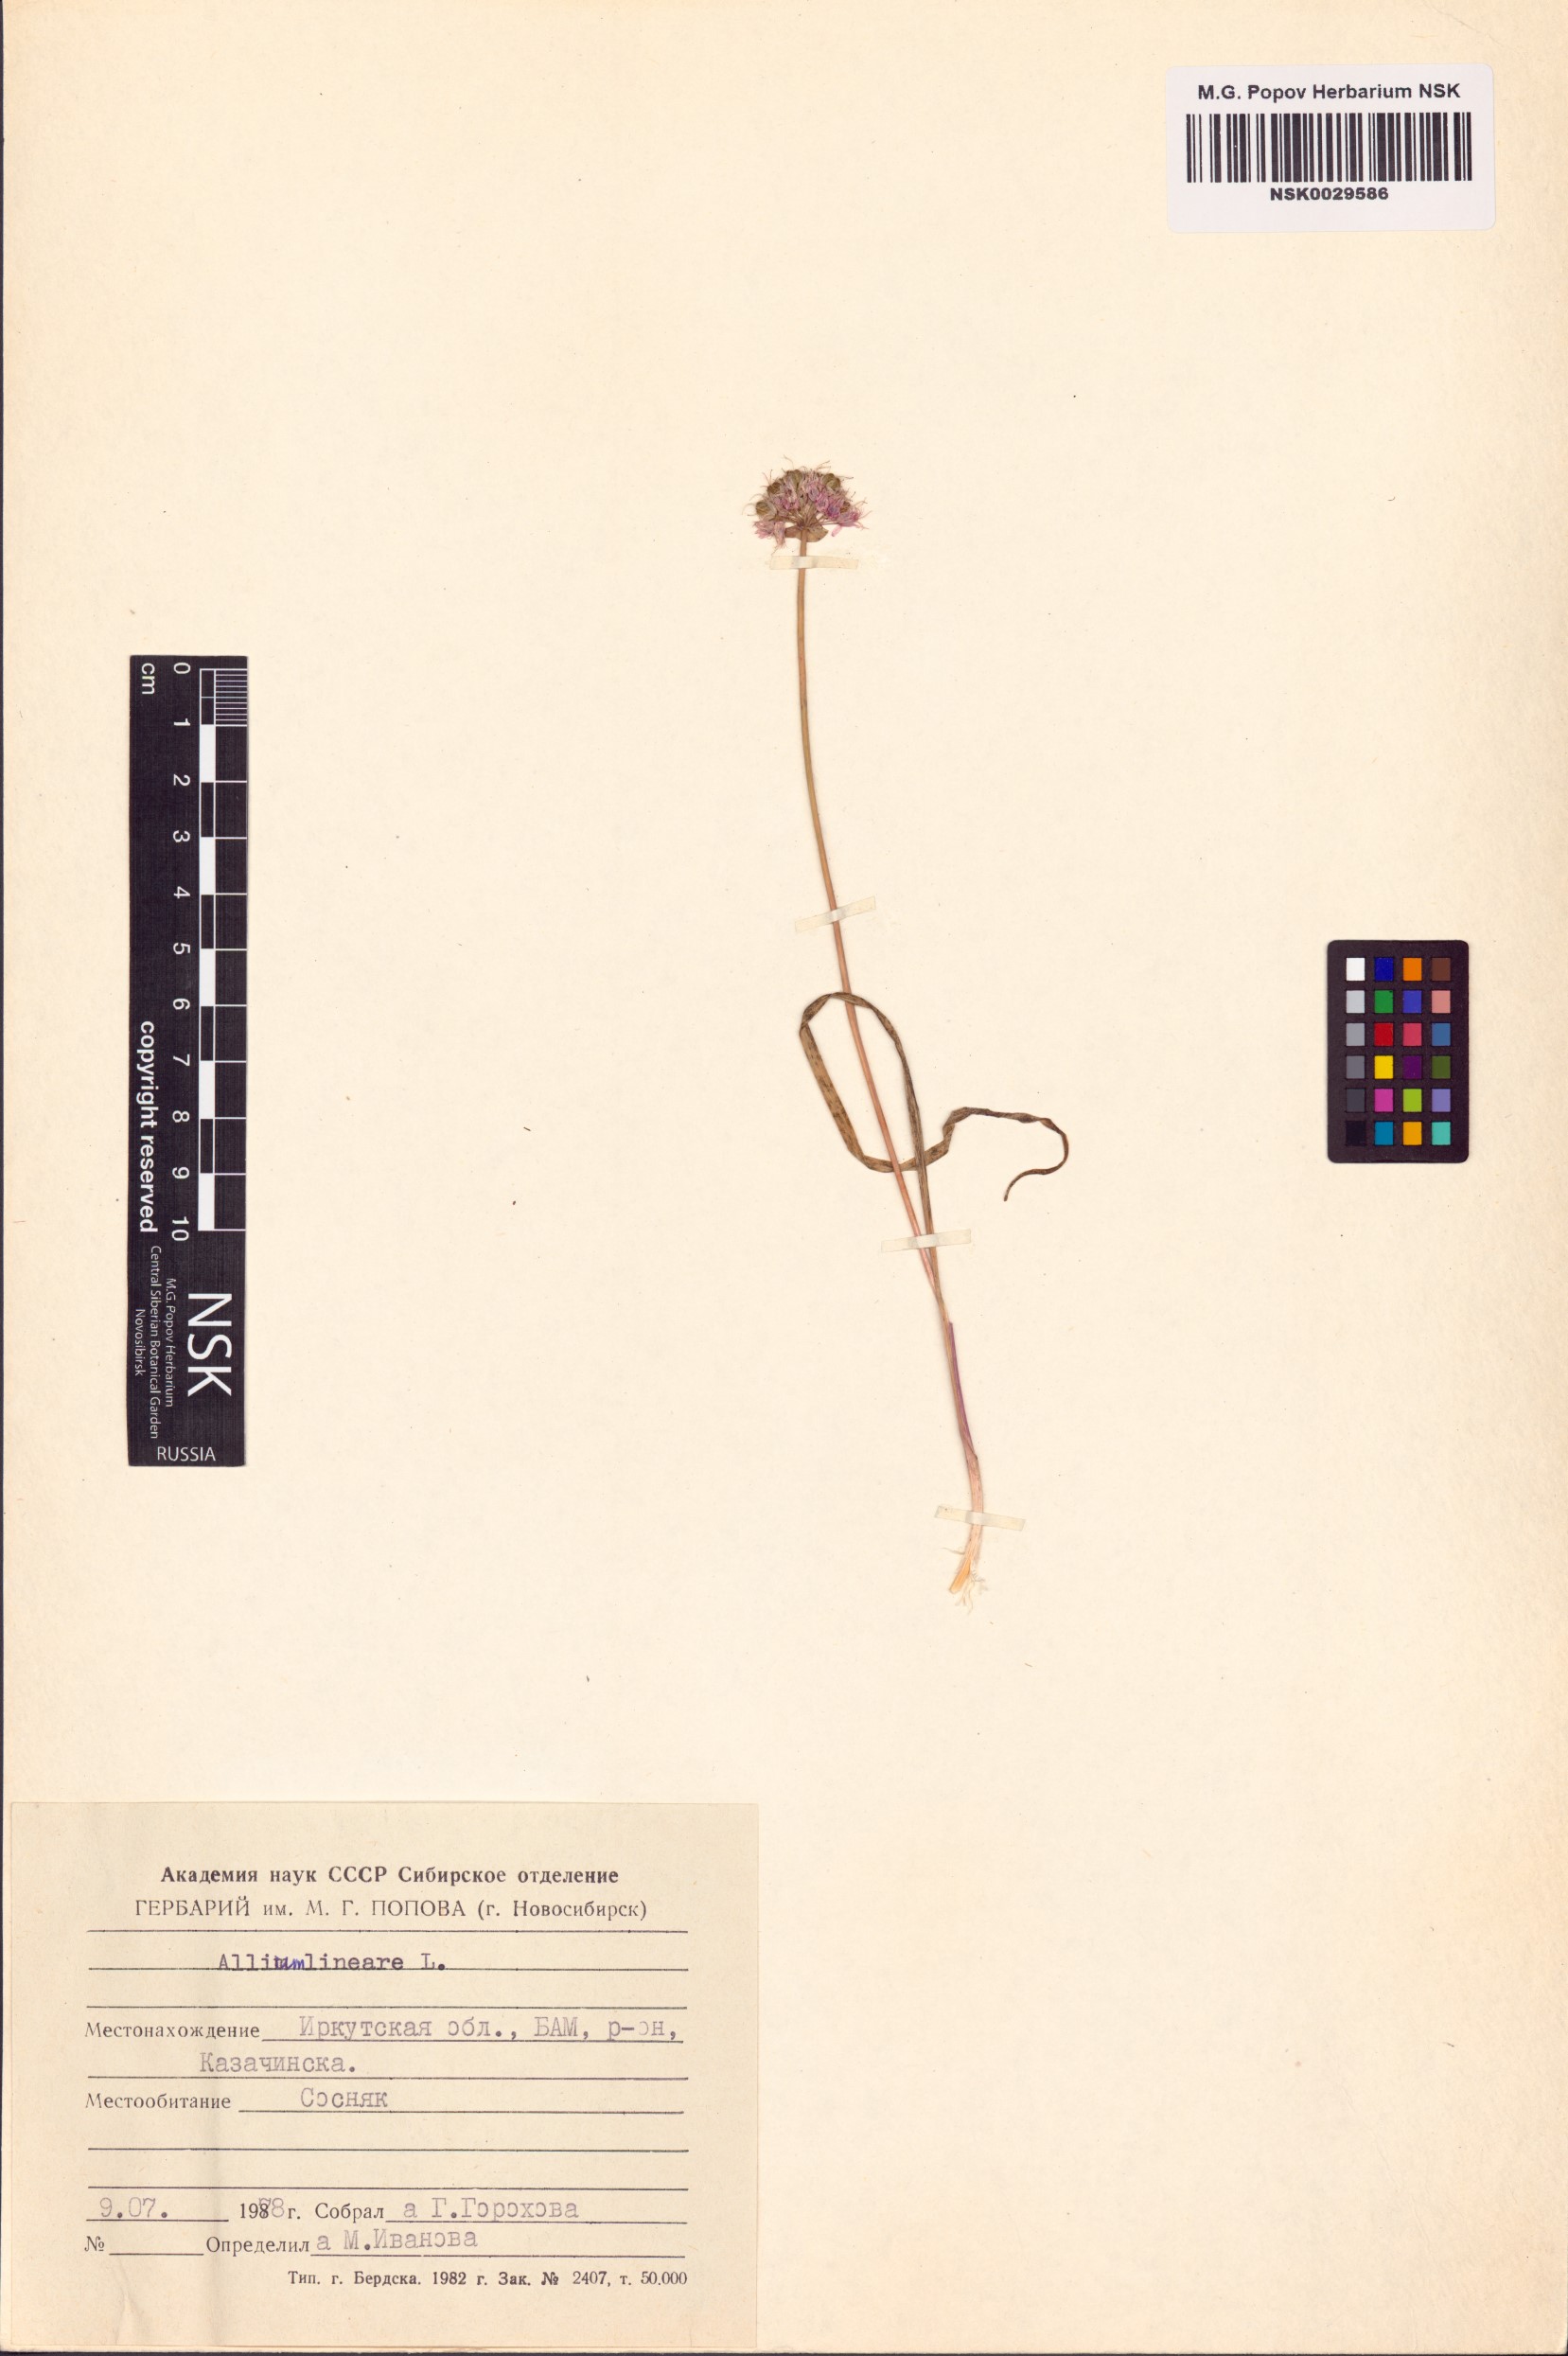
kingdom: Plantae
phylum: Tracheophyta
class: Liliopsida
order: Asparagales
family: Amaryllidaceae
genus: Allium
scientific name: Allium lineare
